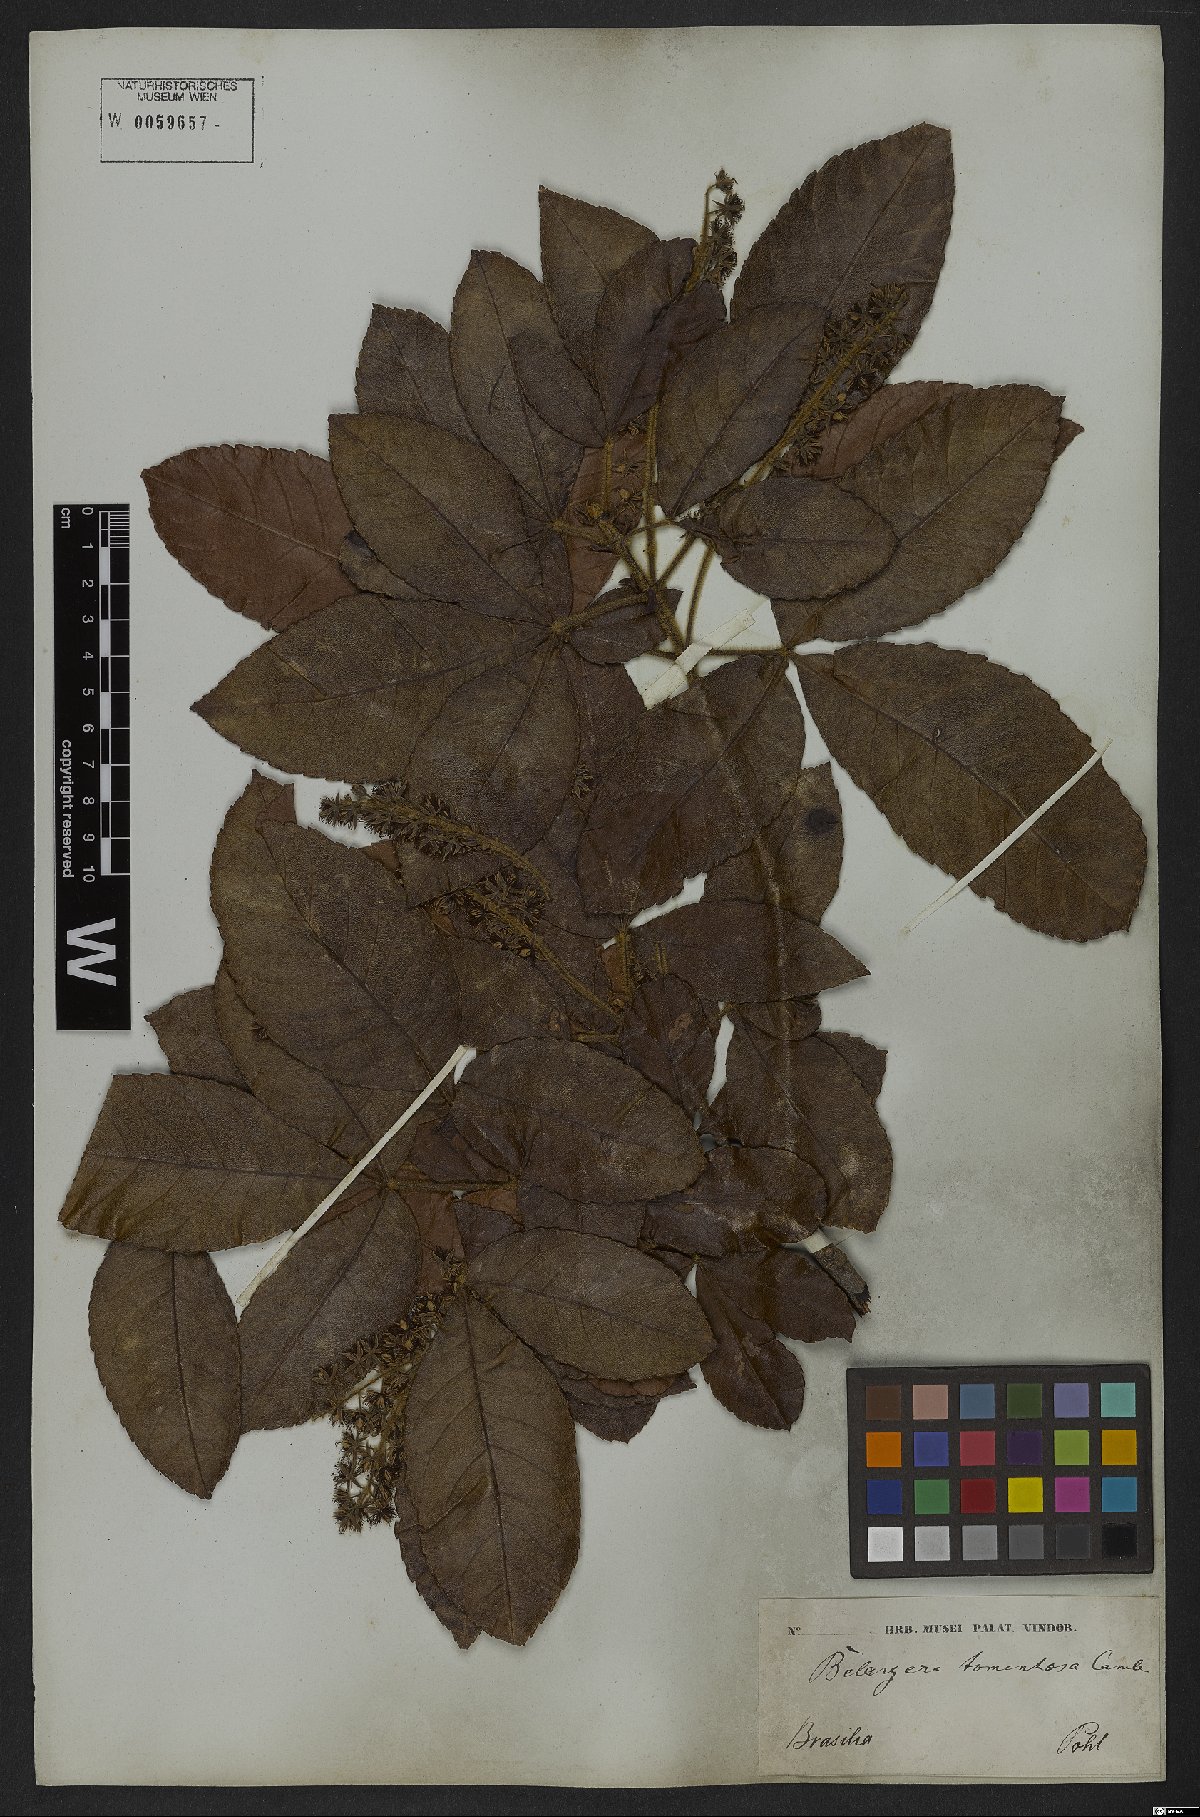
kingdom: Plantae
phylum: Tracheophyta
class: Magnoliopsida
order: Oxalidales
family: Cunoniaceae
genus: Lamanonia
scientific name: Lamanonia ternata
